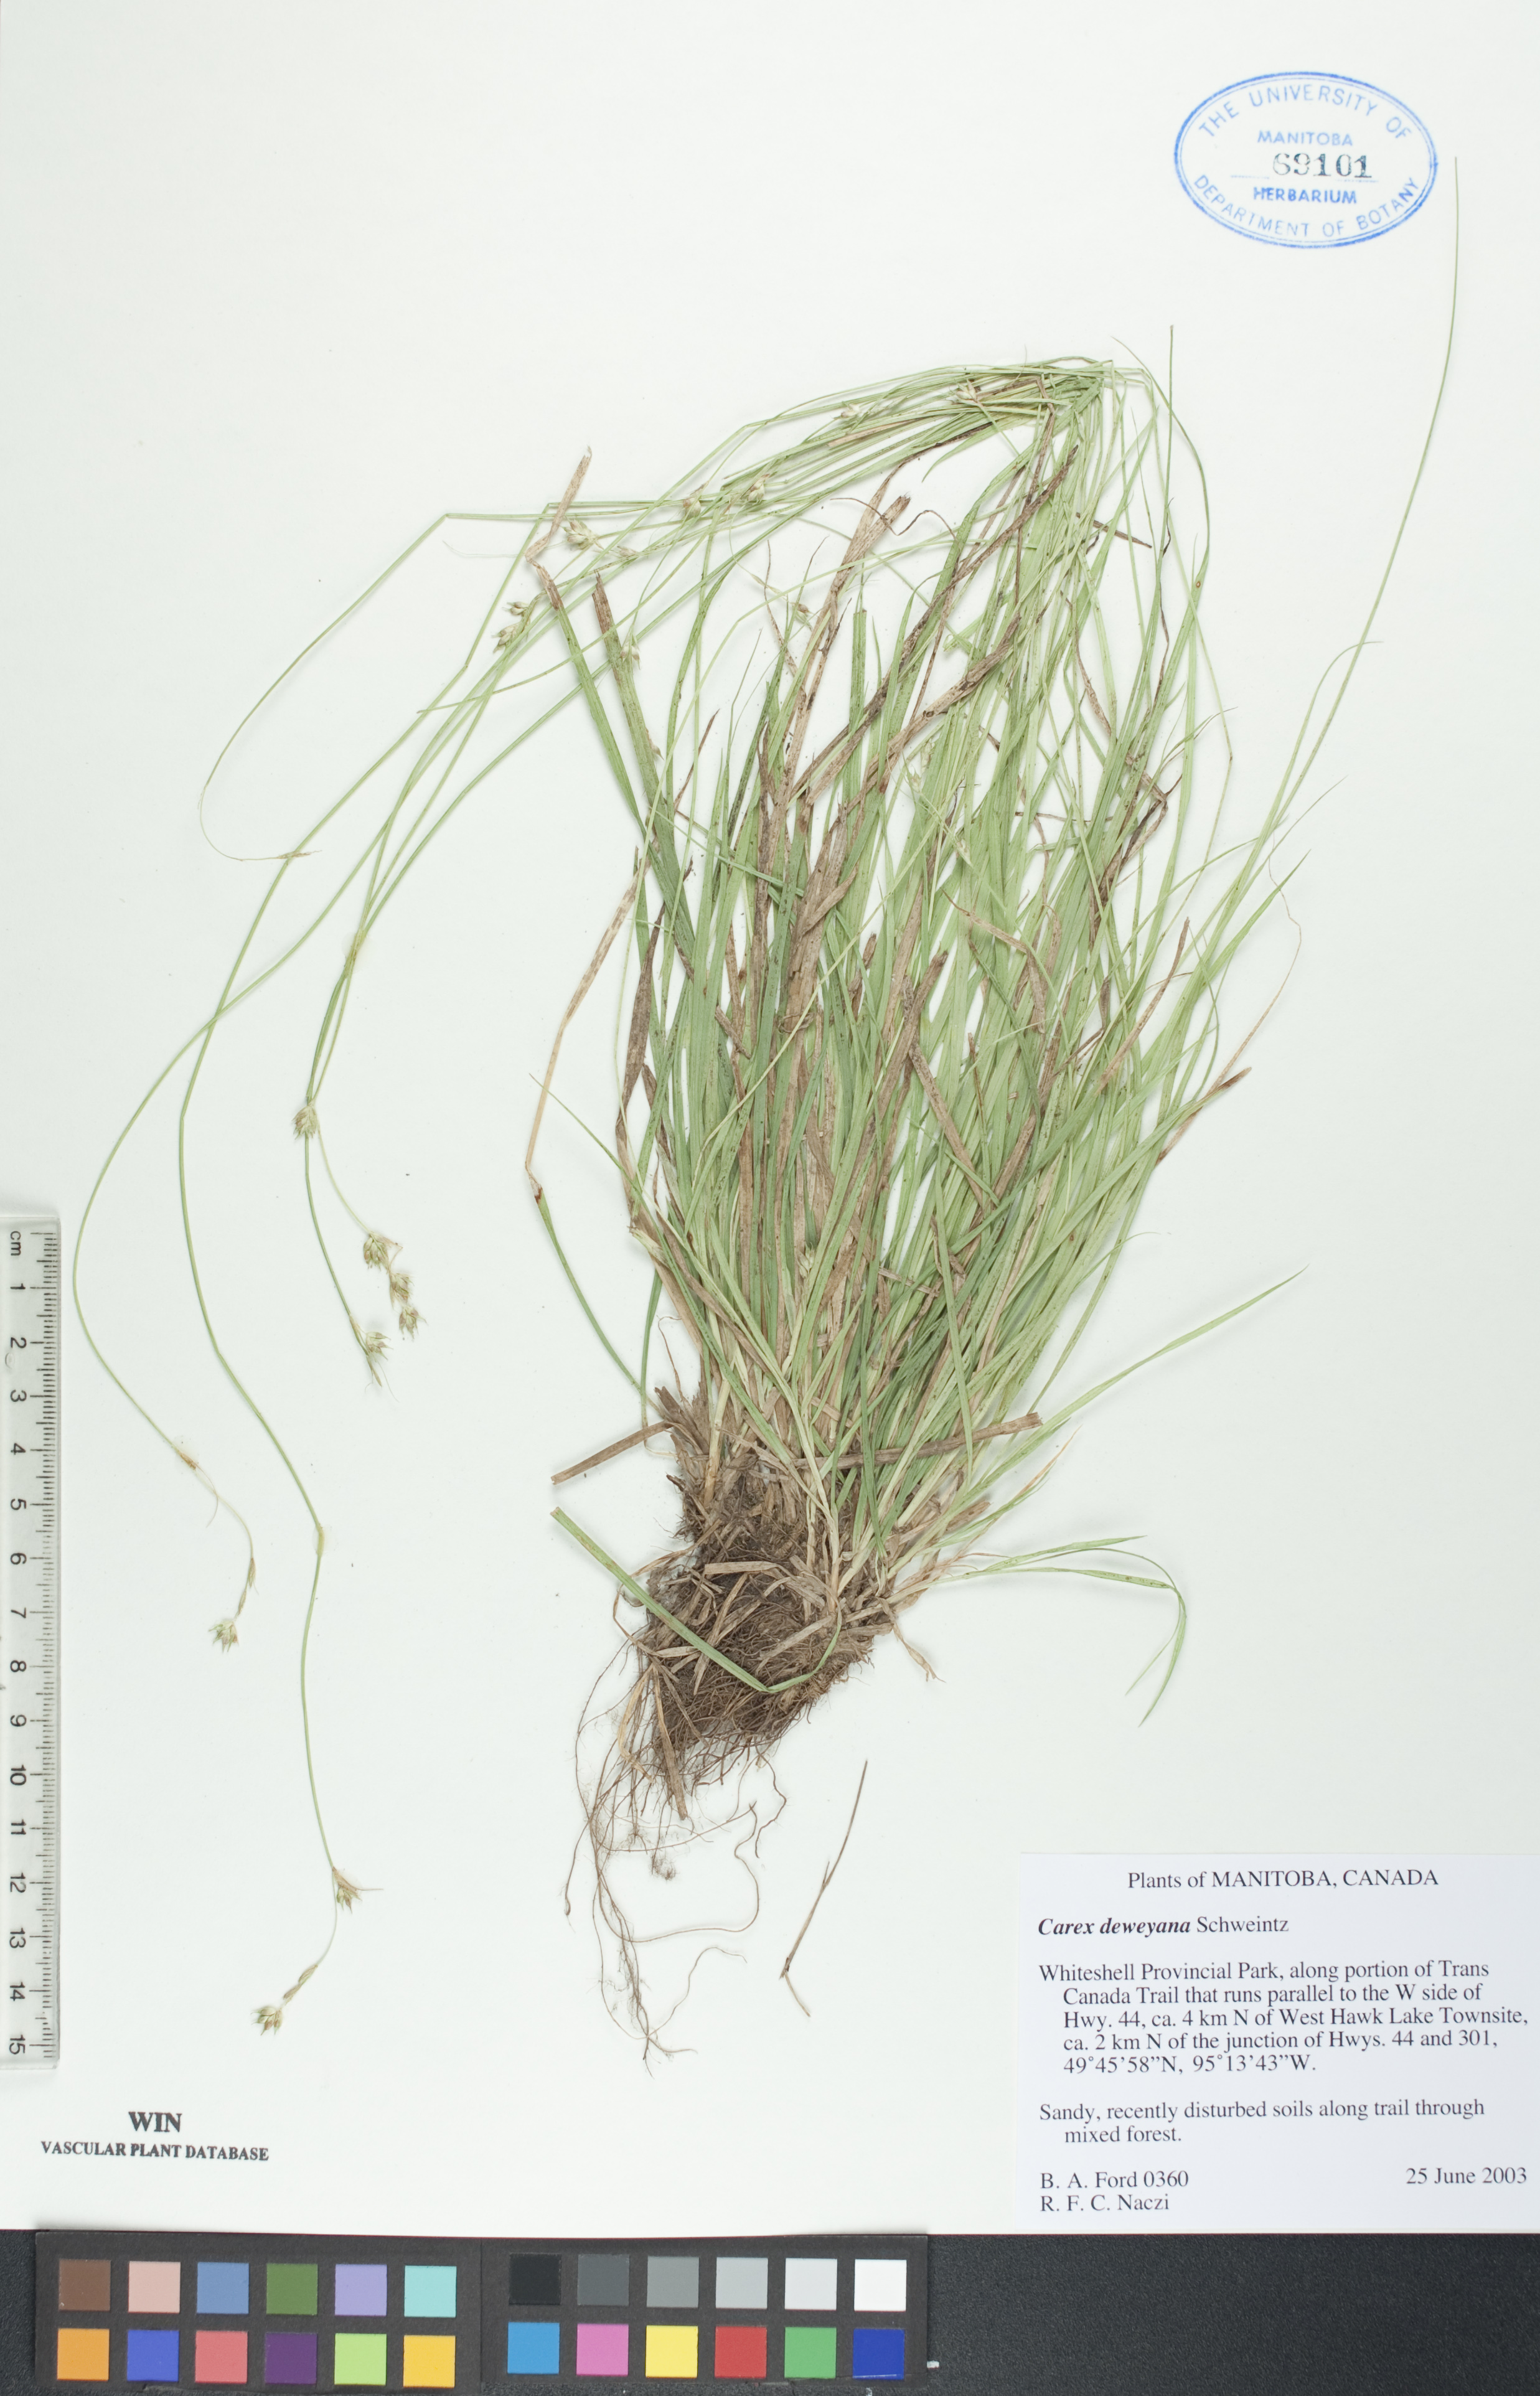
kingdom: Plantae
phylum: Tracheophyta
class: Liliopsida
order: Poales
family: Cyperaceae
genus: Carex
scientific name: Carex deweyana
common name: Dewey's sedge
